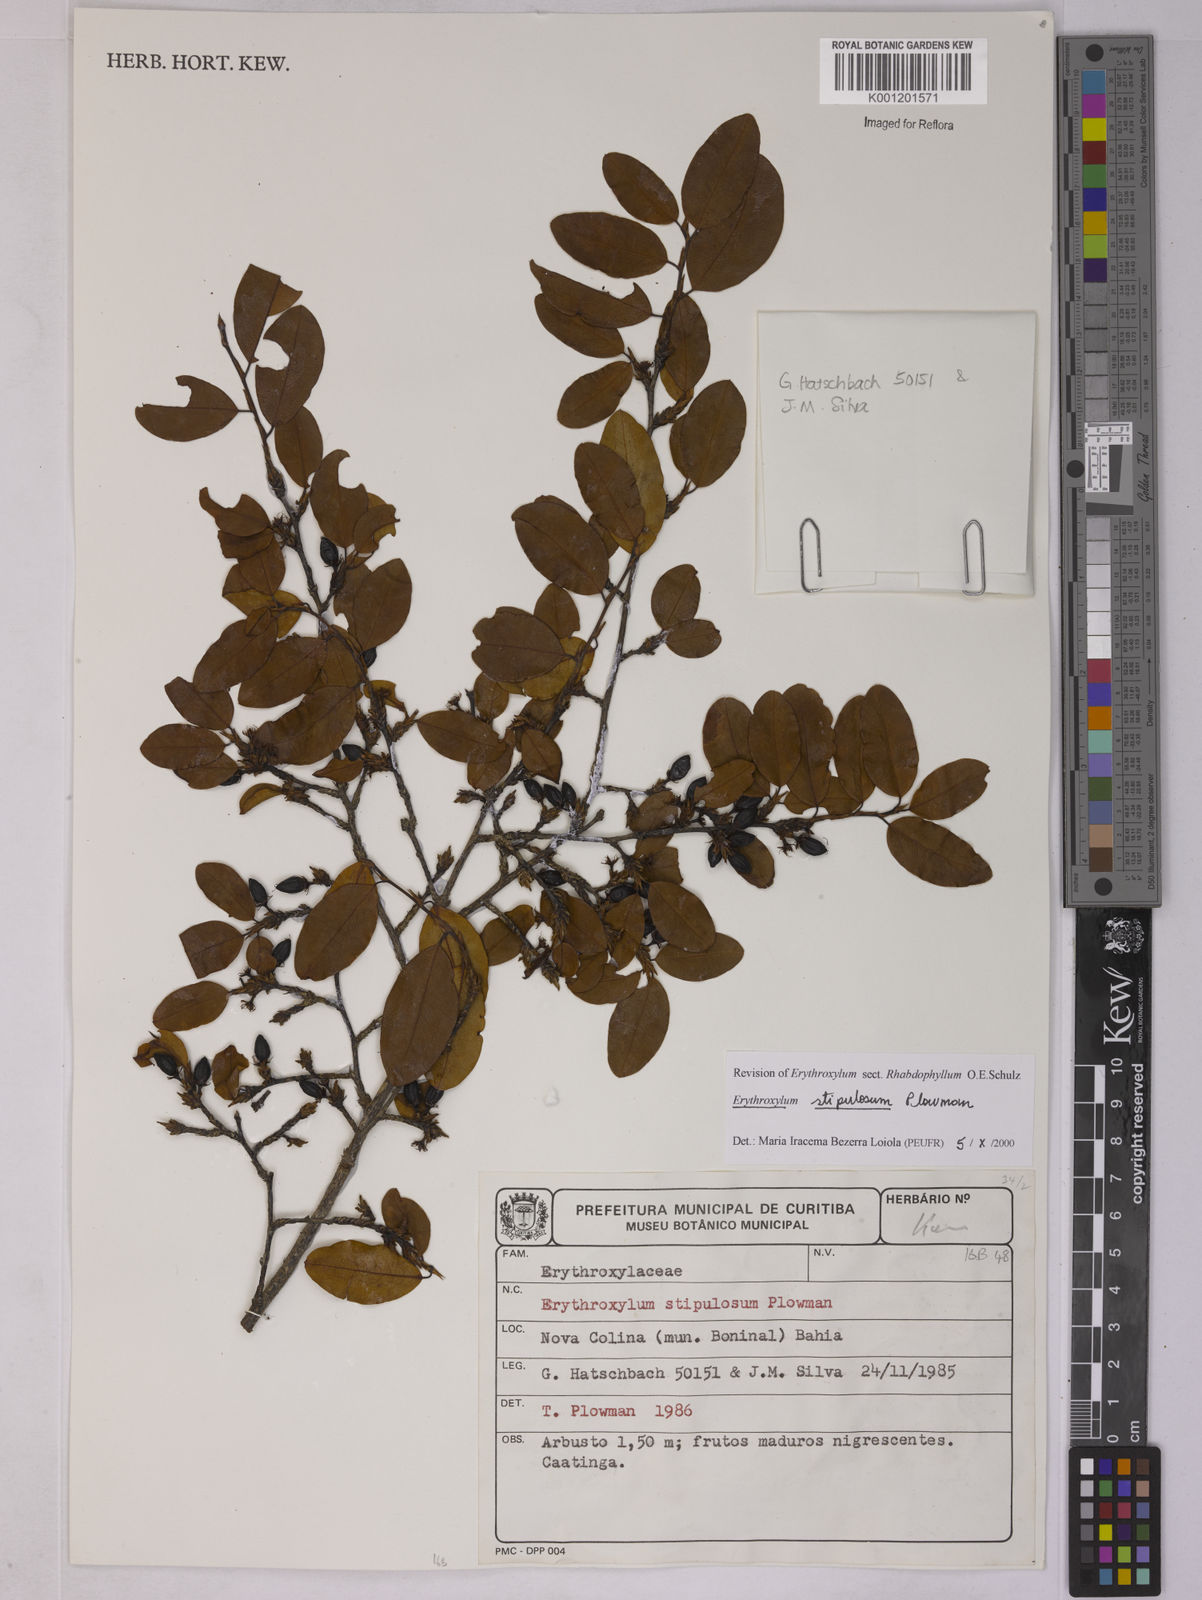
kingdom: Plantae
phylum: Tracheophyta
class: Magnoliopsida
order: Malpighiales
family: Erythroxylaceae
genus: Erythroxylum
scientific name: Erythroxylum stipulosum
